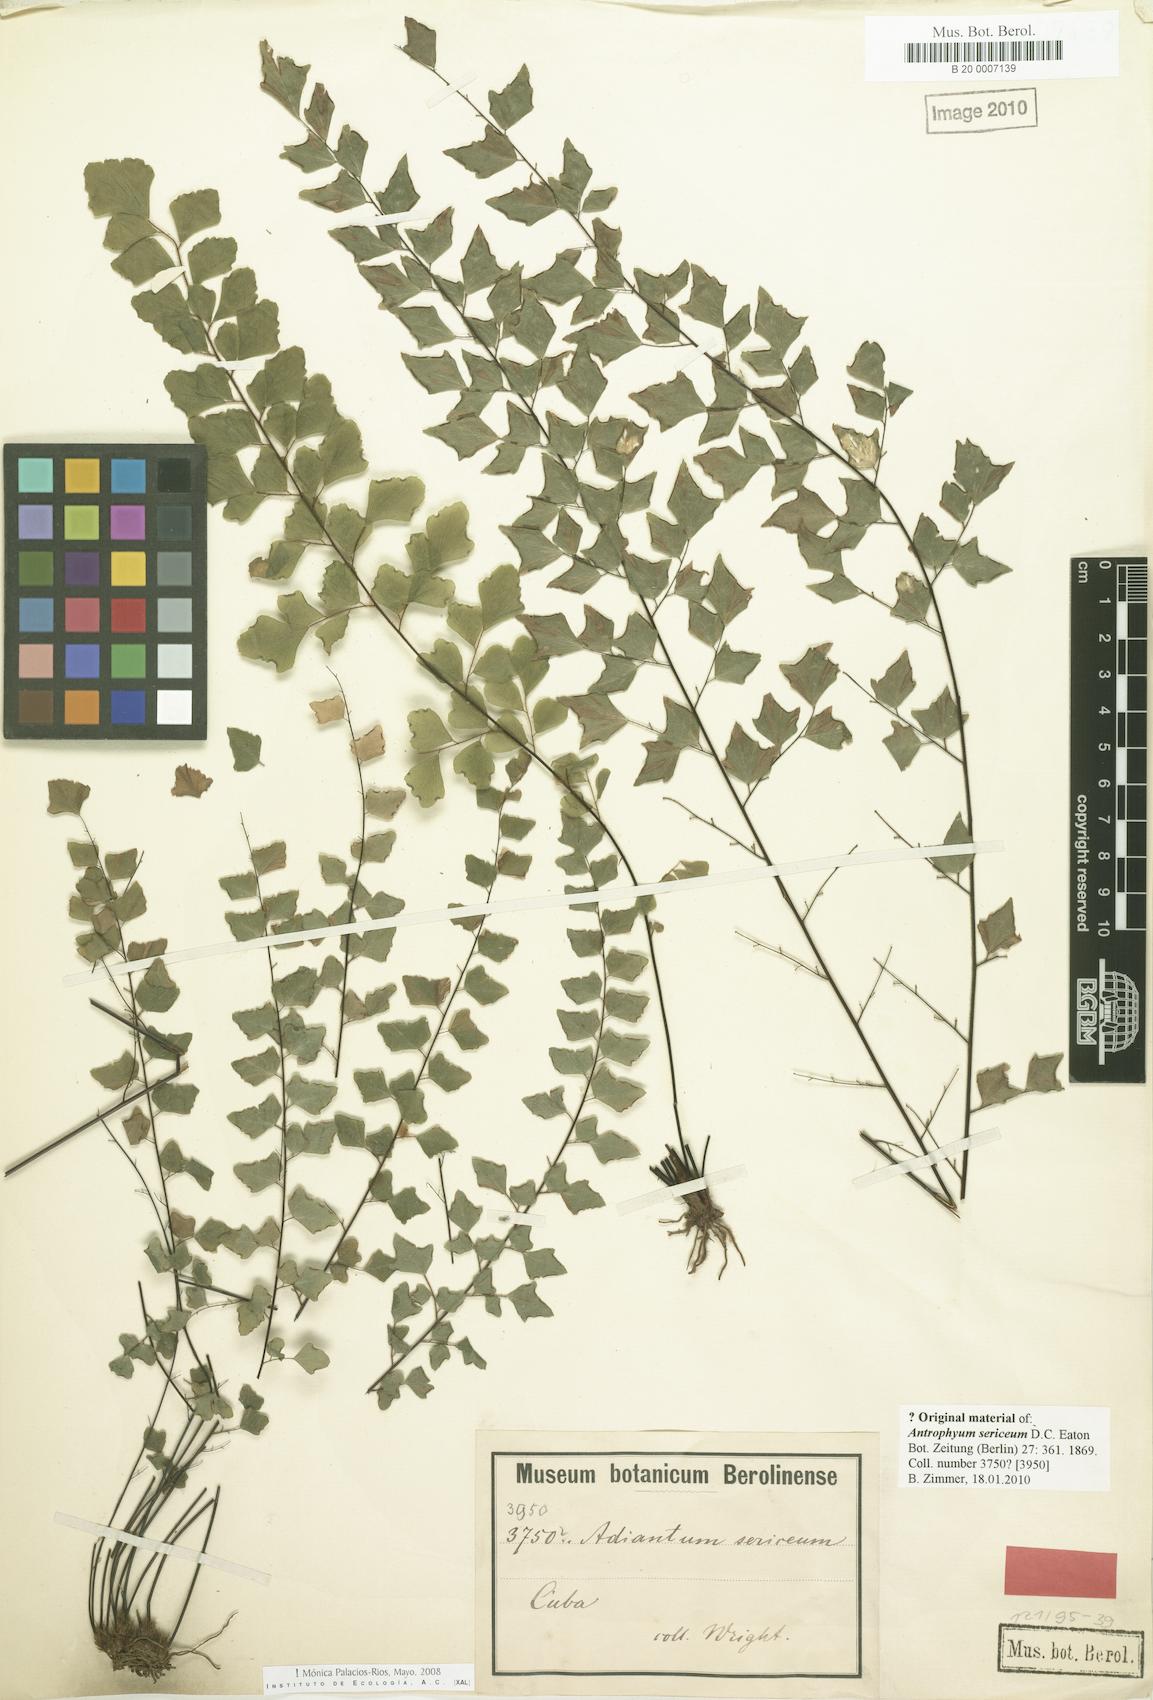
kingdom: Plantae
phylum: Tracheophyta
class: Polypodiopsida
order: Polypodiales
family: Pteridaceae
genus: Adiantum
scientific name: Adiantum sericeum
